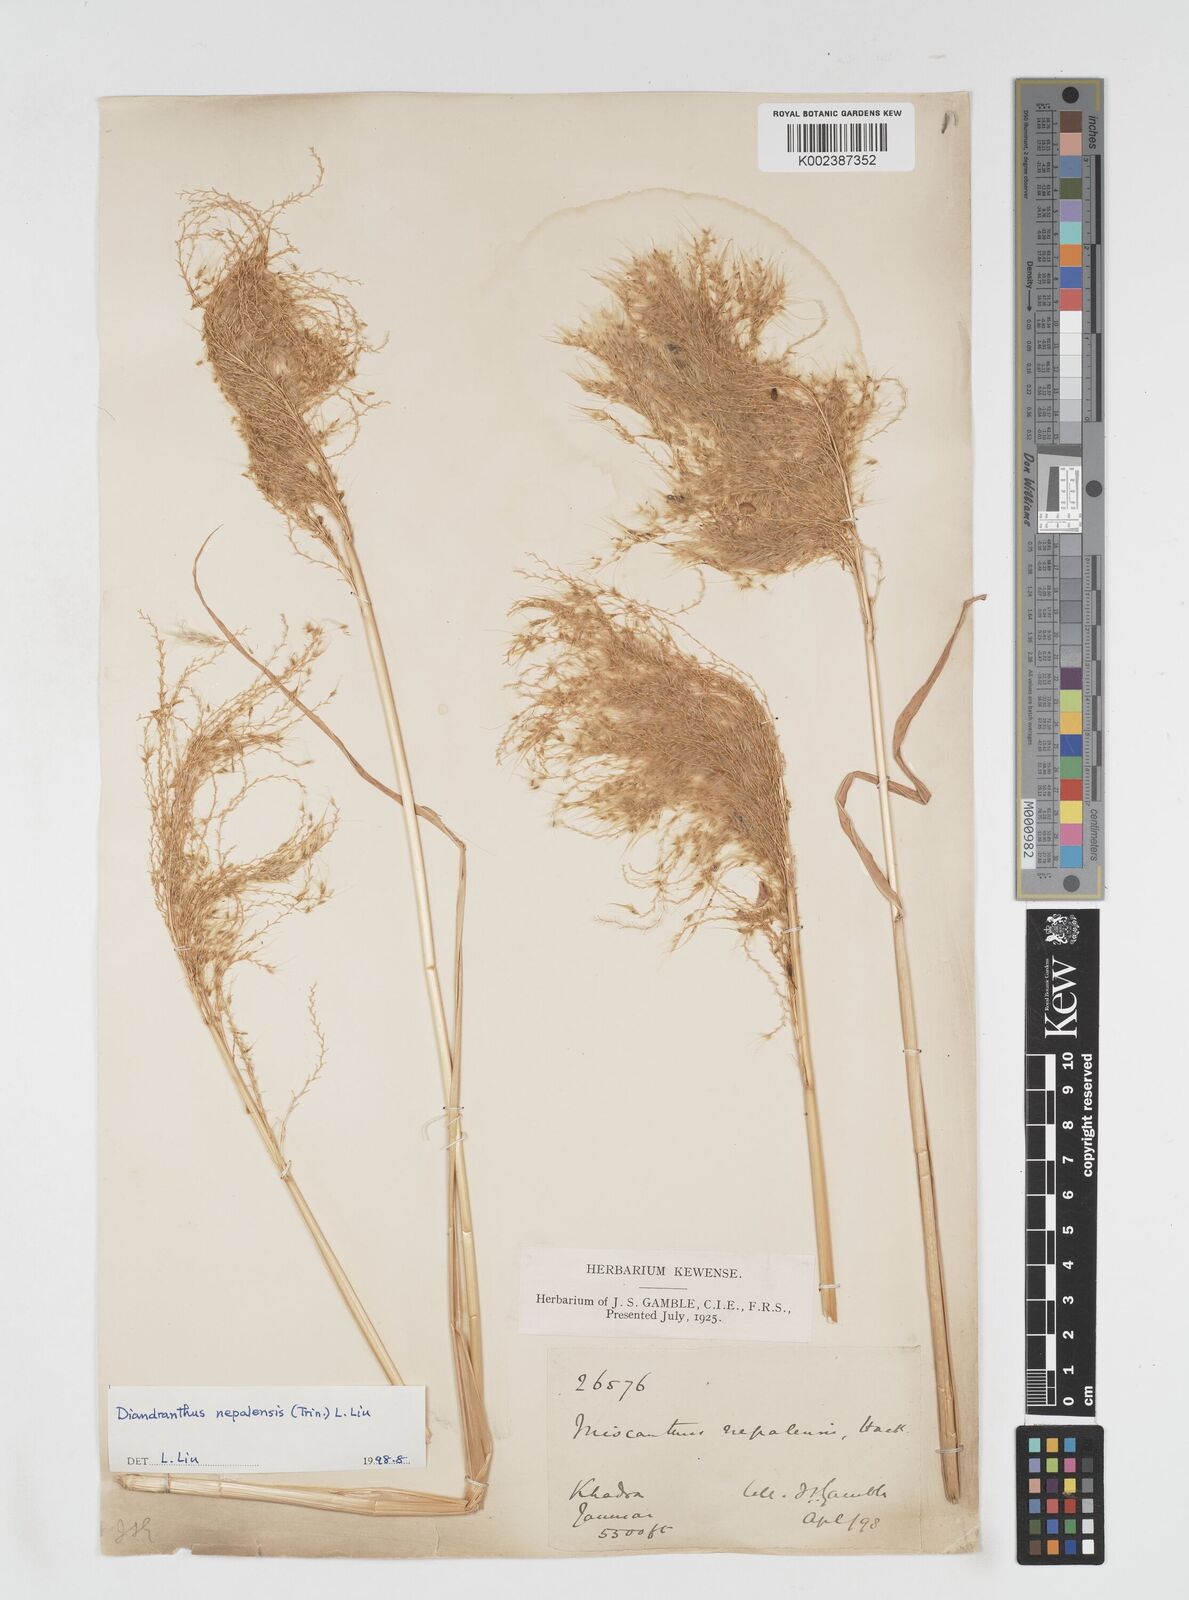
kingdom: Plantae
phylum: Tracheophyta
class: Liliopsida
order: Poales
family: Poaceae
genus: Miscanthus
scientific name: Miscanthus nepalensis
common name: Nepal silver grass
